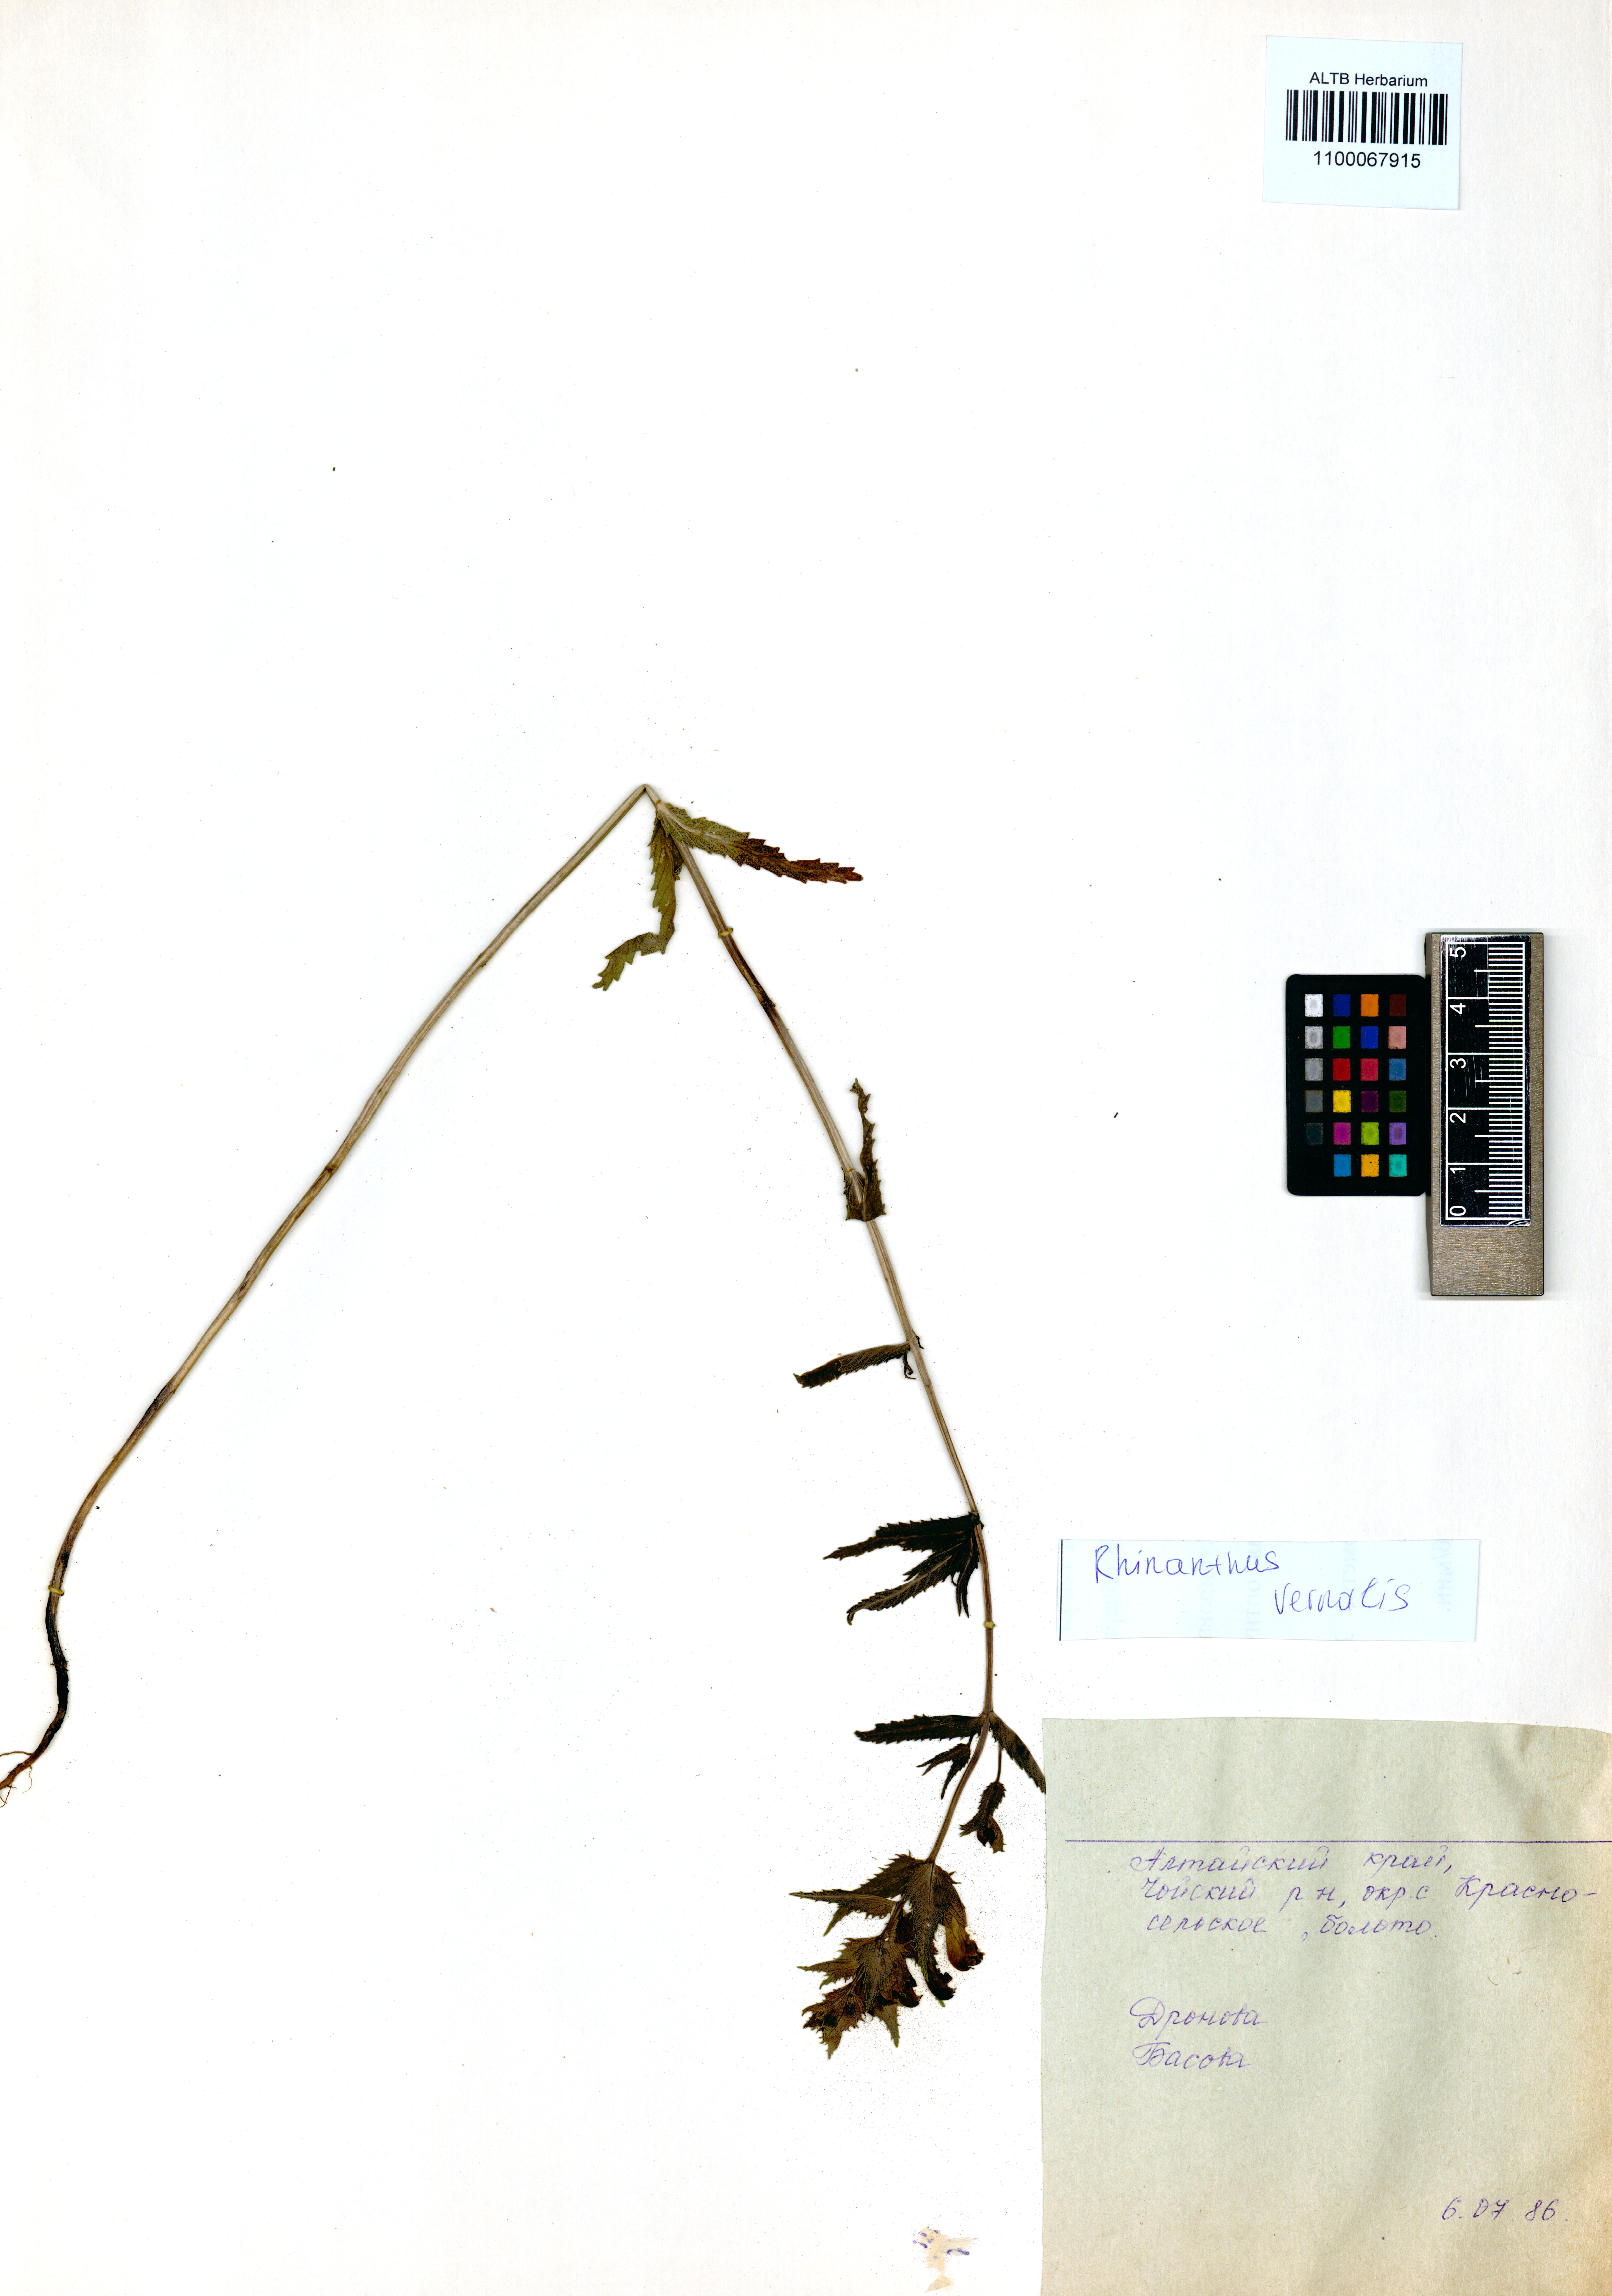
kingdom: Plantae
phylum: Tracheophyta
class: Magnoliopsida
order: Lamiales
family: Orobanchaceae
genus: Rhinanthus
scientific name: Rhinanthus serotinus
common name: Late-flowering yellow rattle
